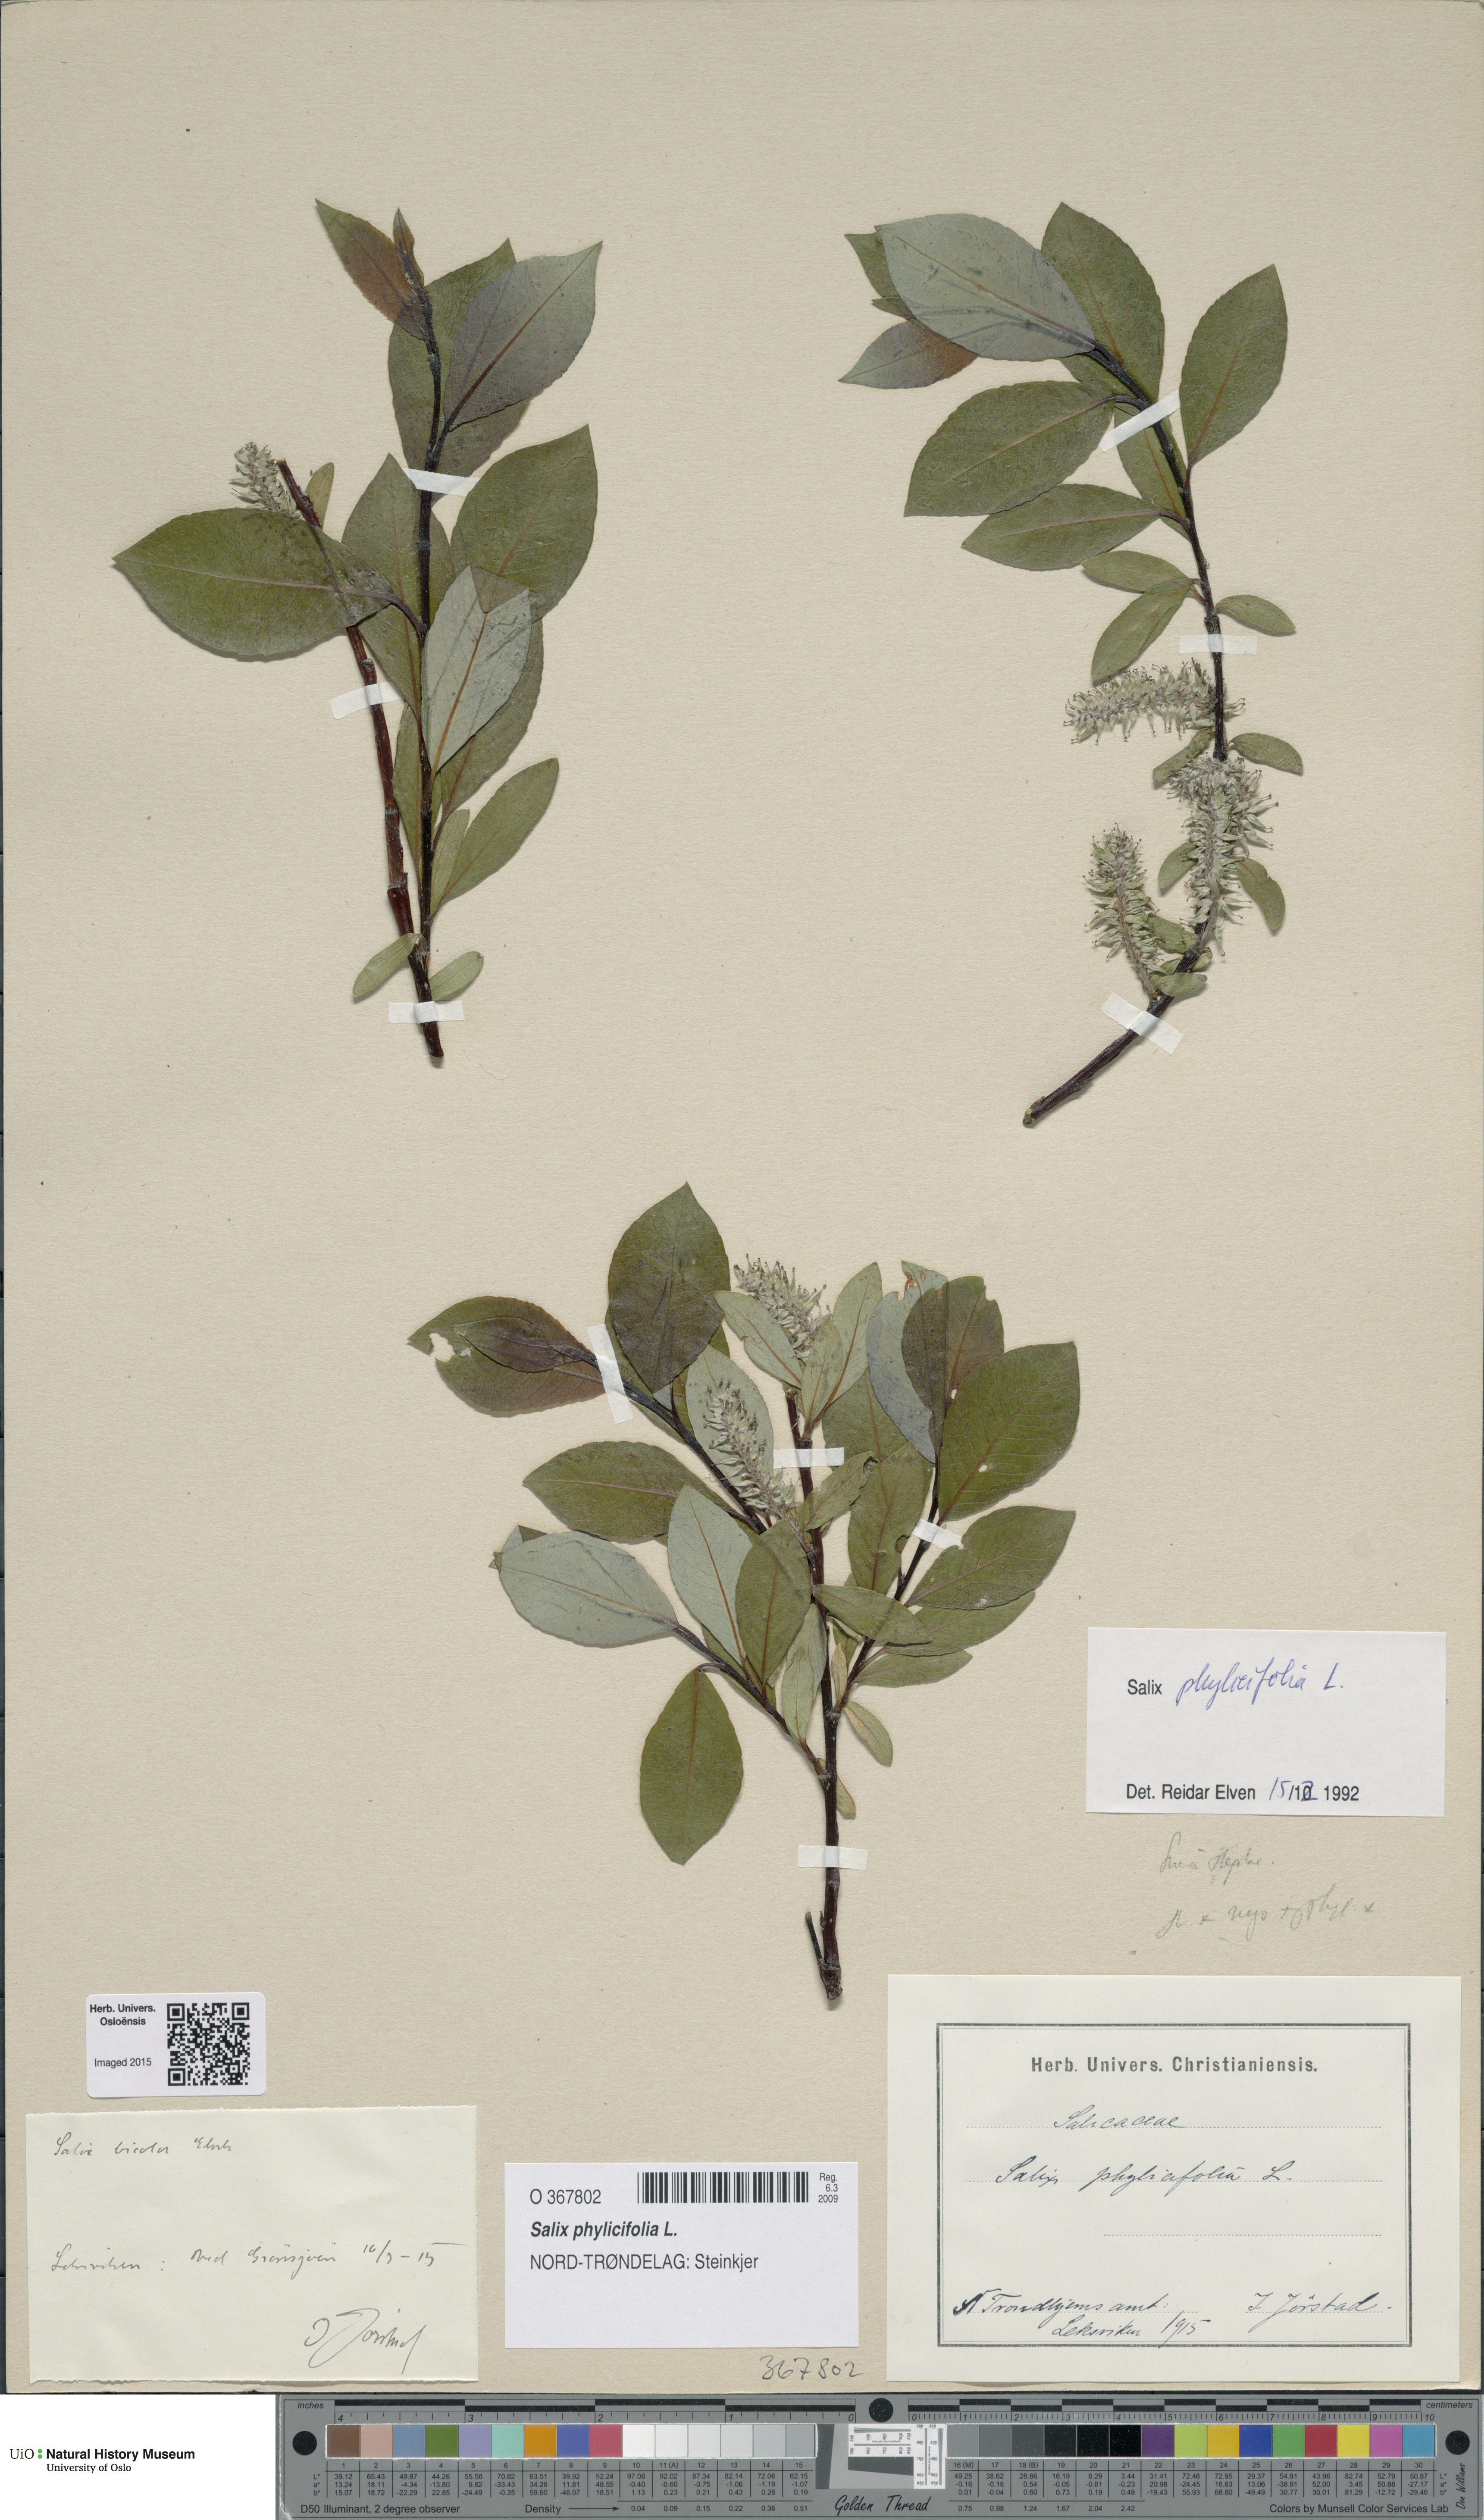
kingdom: Plantae
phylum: Tracheophyta
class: Magnoliopsida
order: Malpighiales
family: Salicaceae
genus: Salix
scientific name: Salix phylicifolia
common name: Tea-leaved willow
